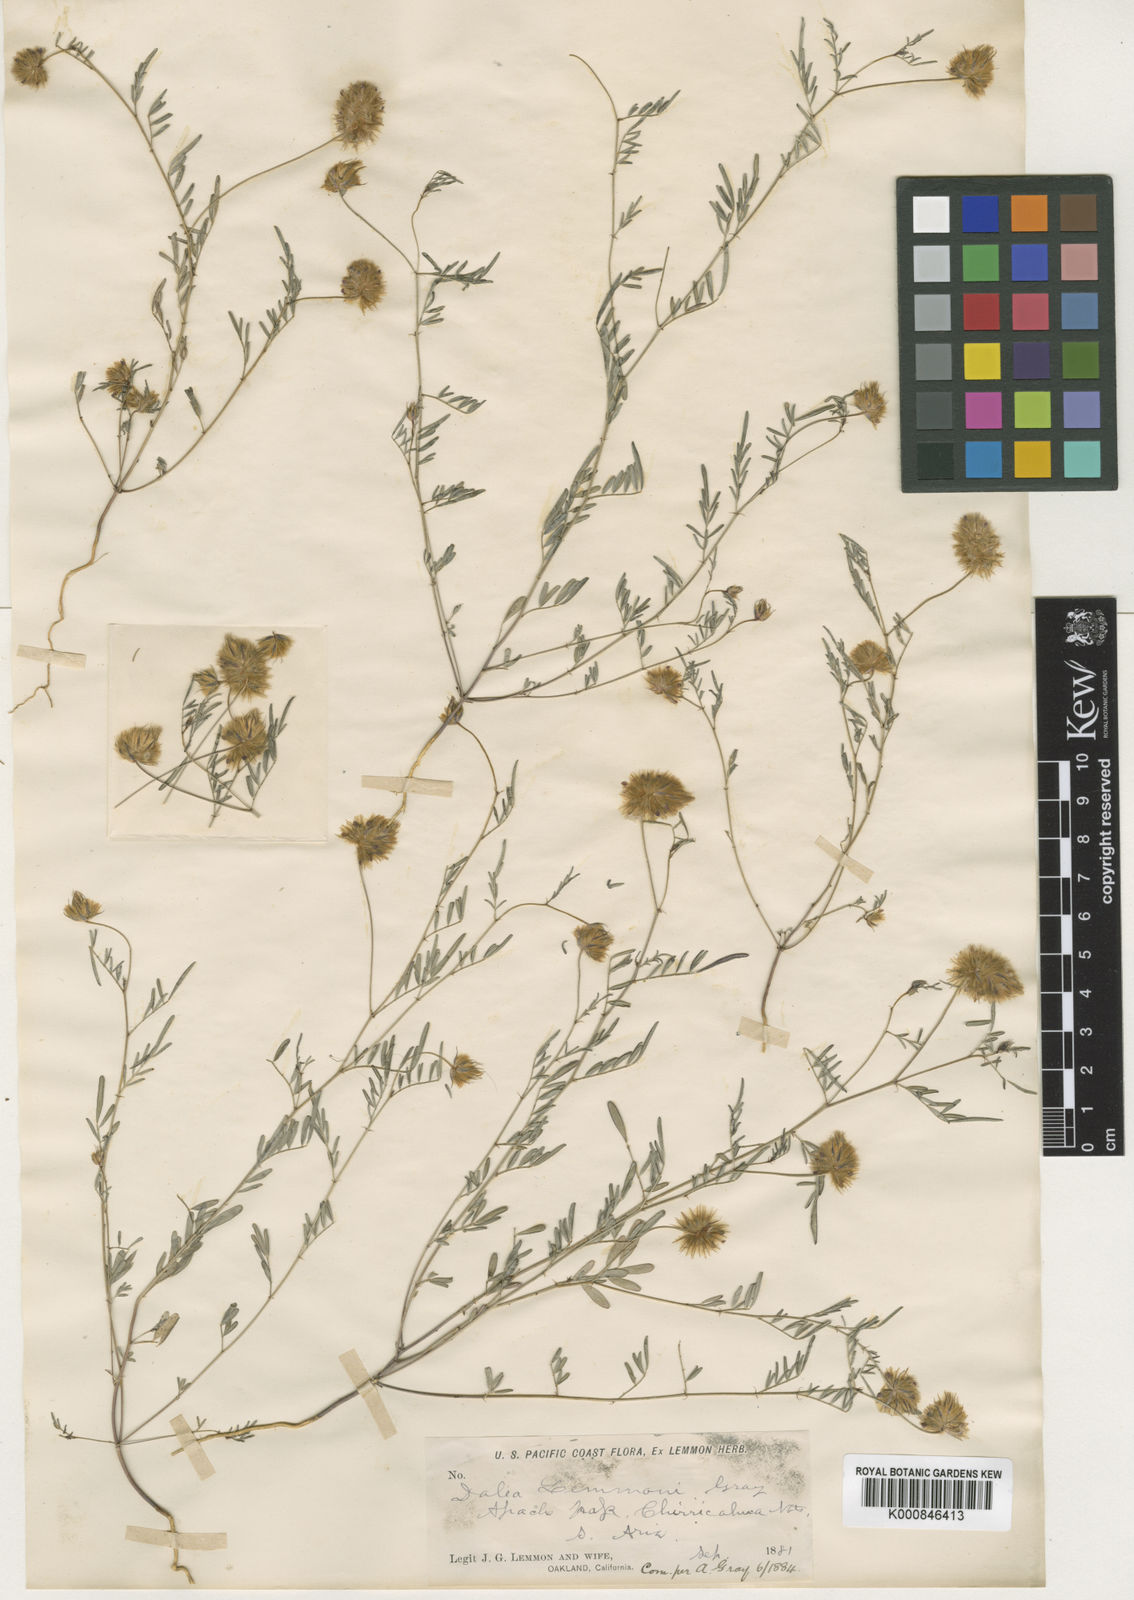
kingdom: Plantae
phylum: Tracheophyta
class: Magnoliopsida
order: Fabales
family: Fabaceae
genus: Dalea
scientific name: Dalea
